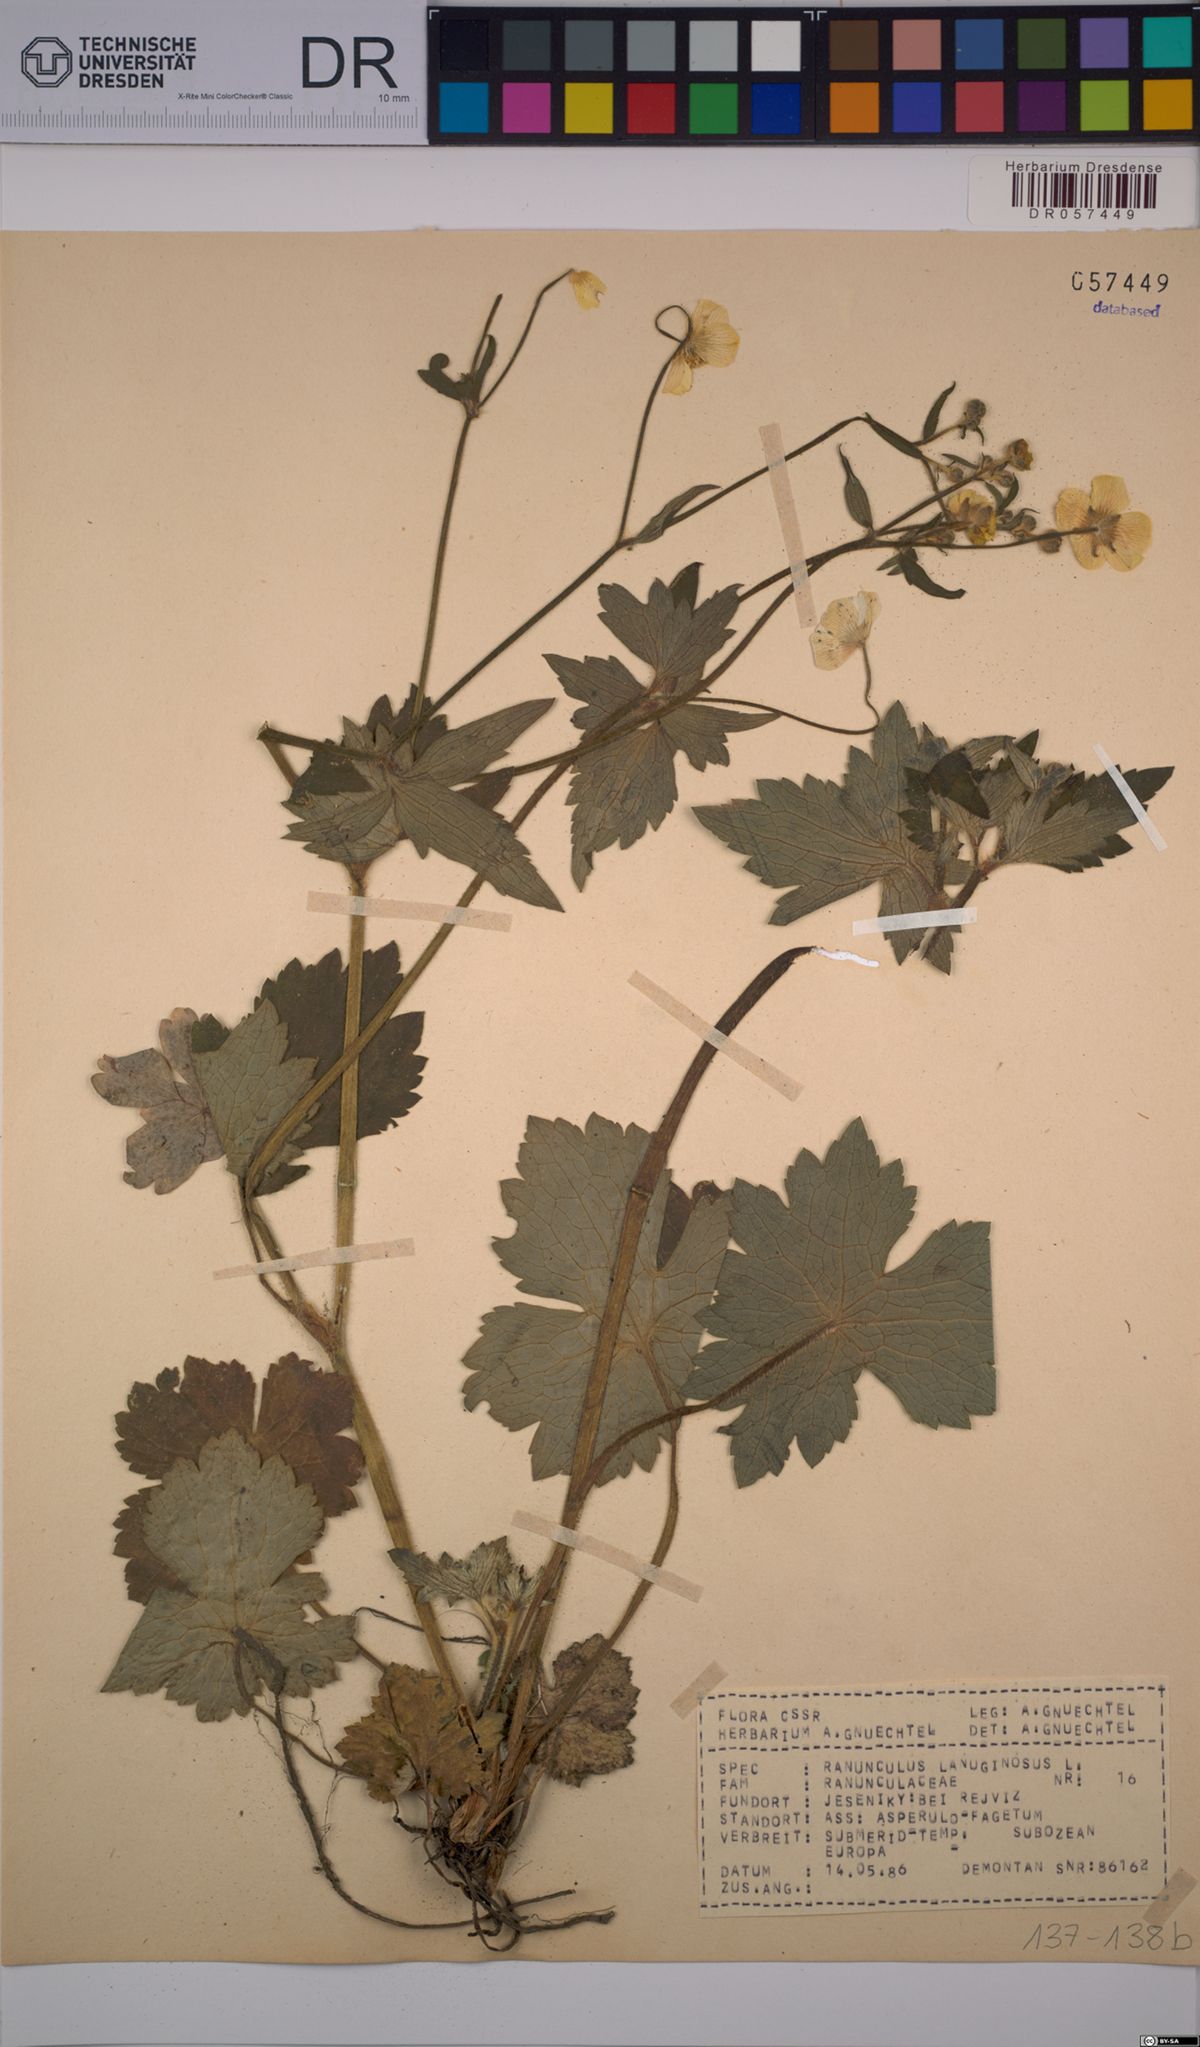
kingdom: Plantae
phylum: Tracheophyta
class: Magnoliopsida
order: Ranunculales
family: Ranunculaceae
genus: Ranunculus
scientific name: Ranunculus lanuginosus
